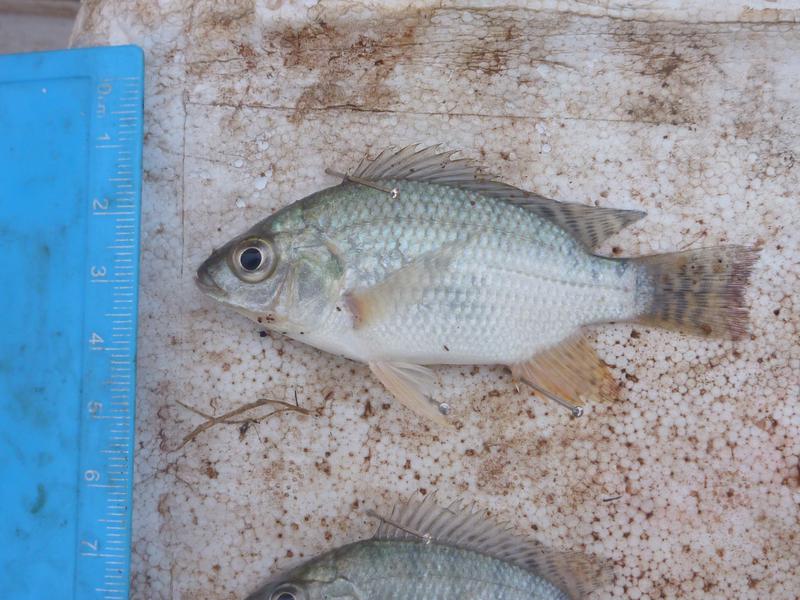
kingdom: Animalia
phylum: Chordata
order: Perciformes
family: Cichlidae
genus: Oreochromis
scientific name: Oreochromis niloticus
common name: Nile tilapia
